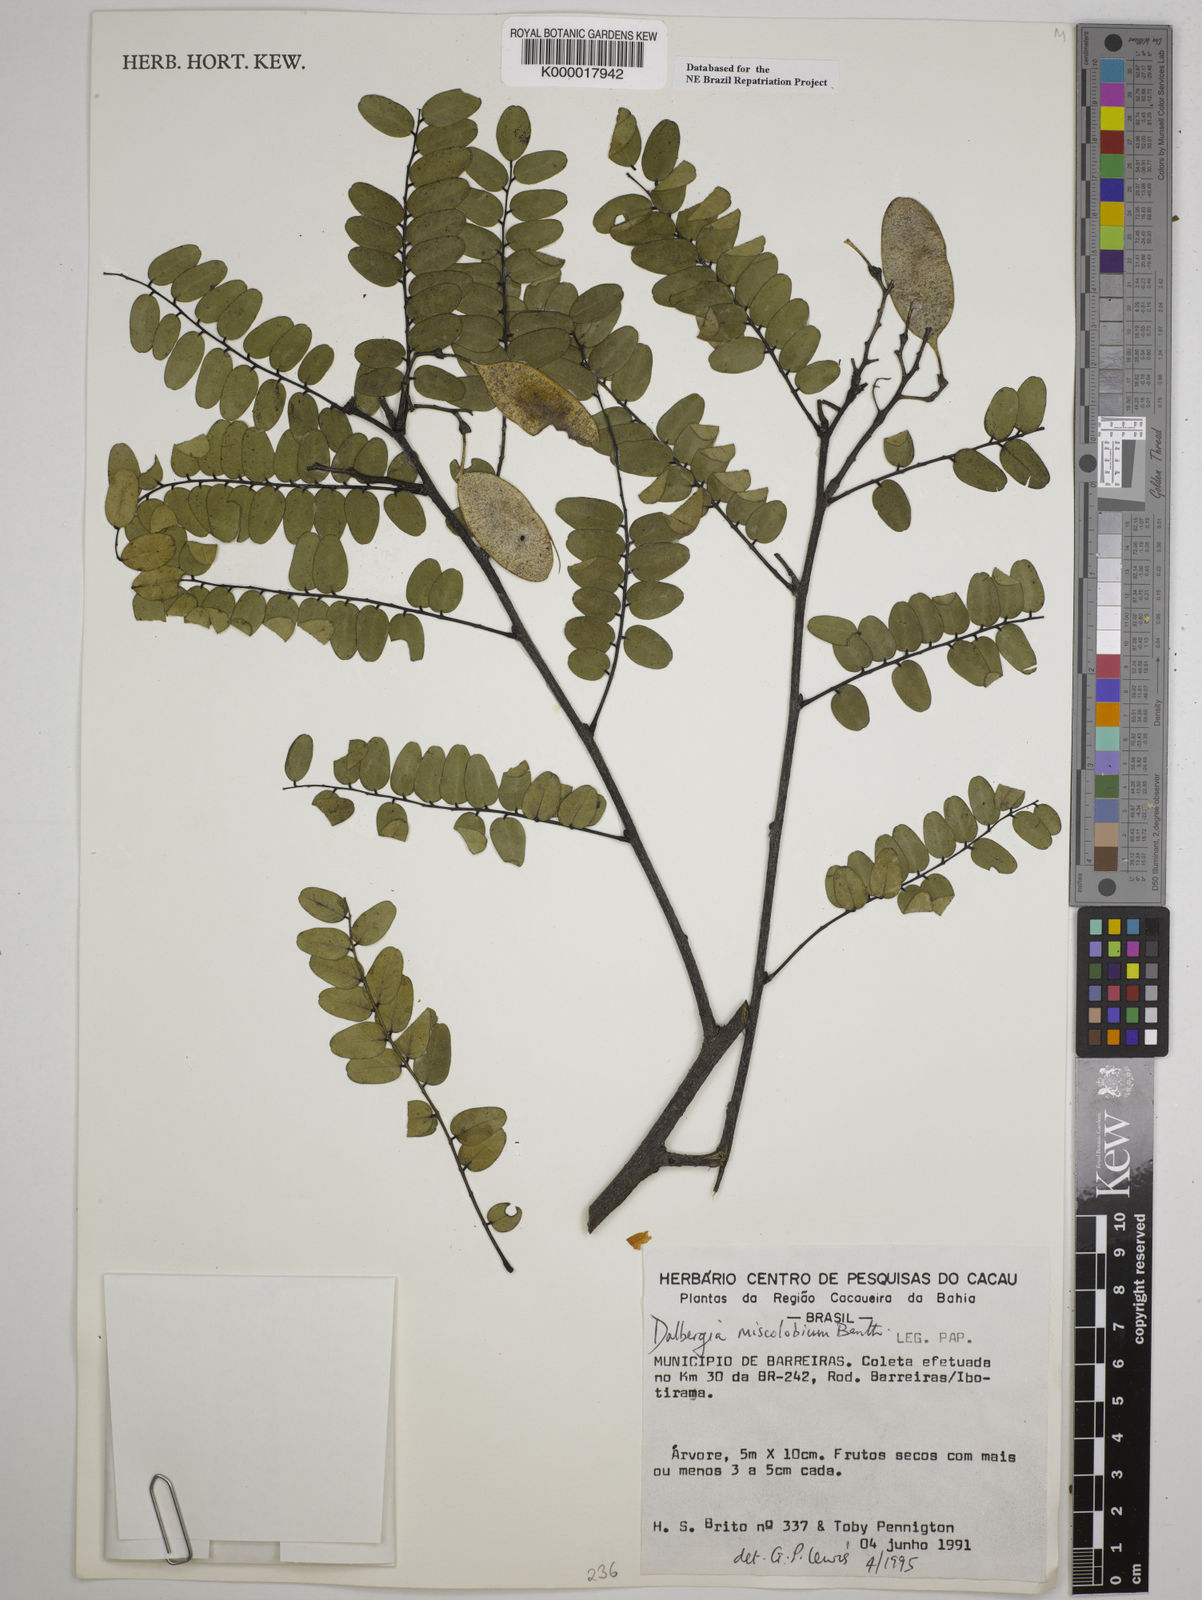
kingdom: Plantae
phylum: Tracheophyta
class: Magnoliopsida
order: Fabales
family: Fabaceae
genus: Dalbergia
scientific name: Dalbergia miscolobium
